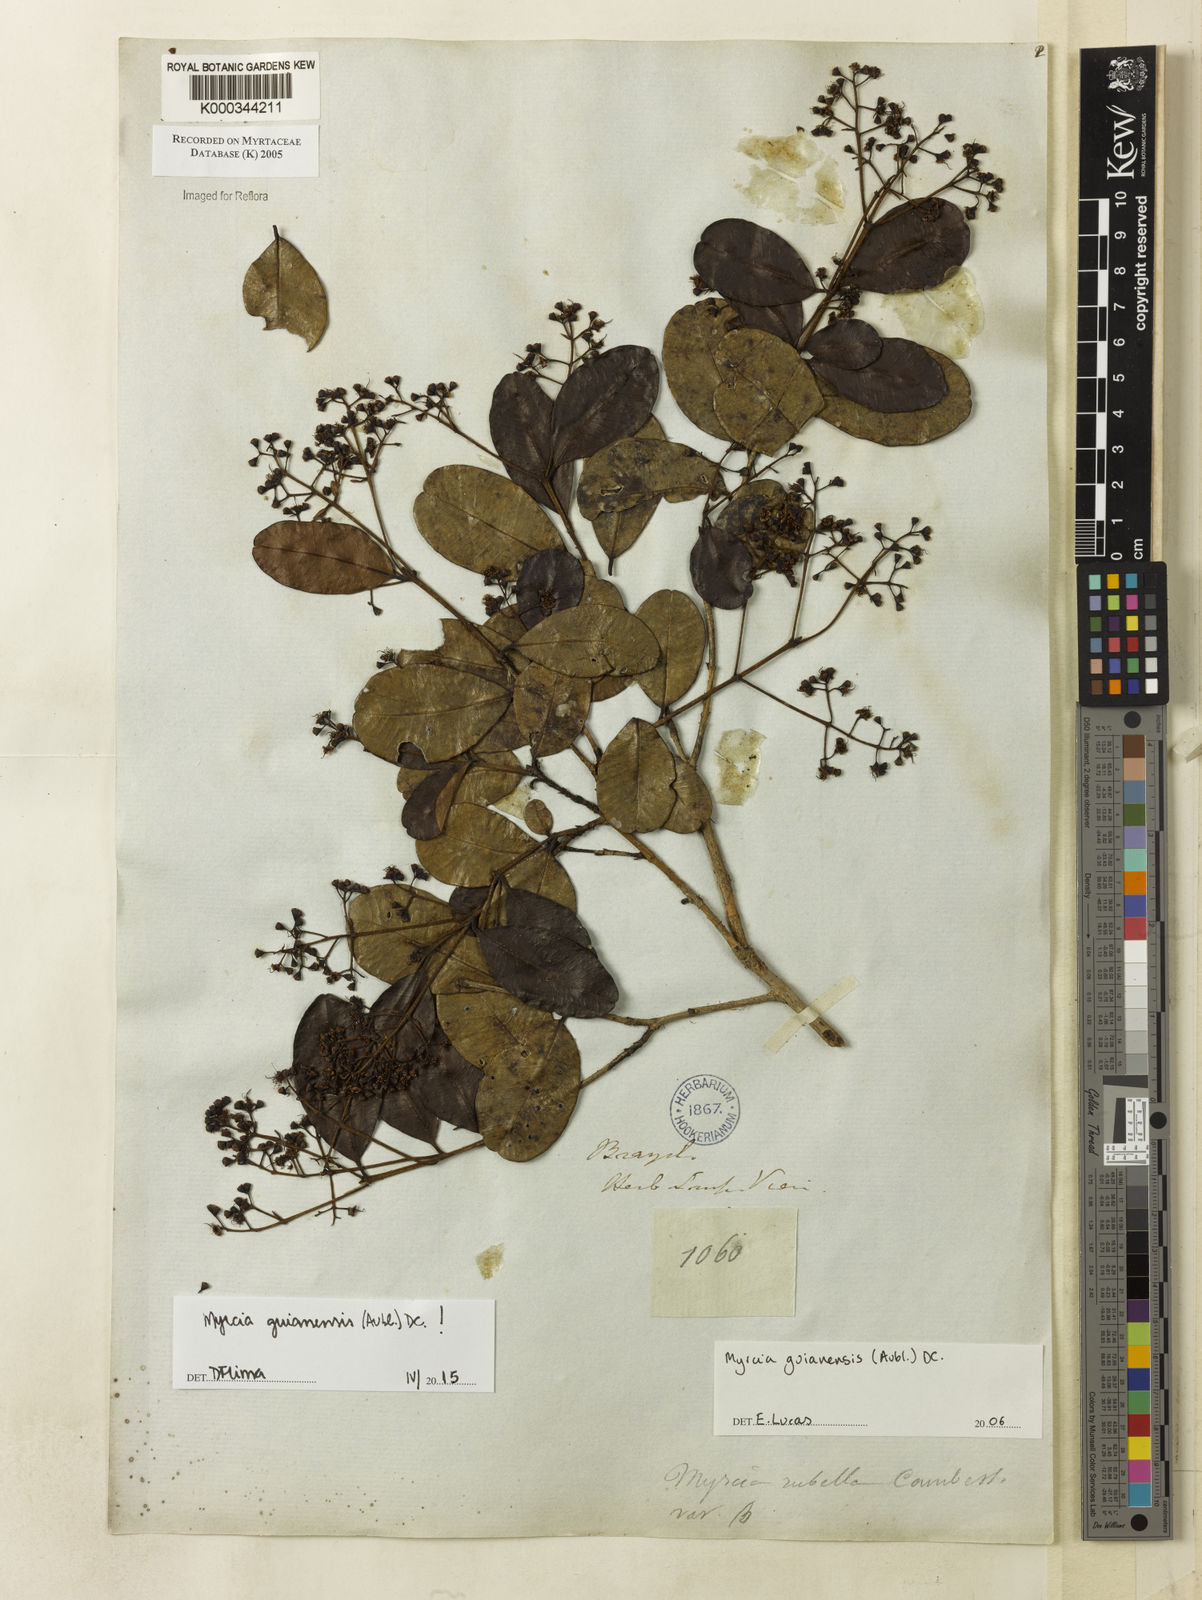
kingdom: Plantae
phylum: Tracheophyta
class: Magnoliopsida
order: Myrtales
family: Myrtaceae
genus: Myrcia
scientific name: Myrcia guianensis
